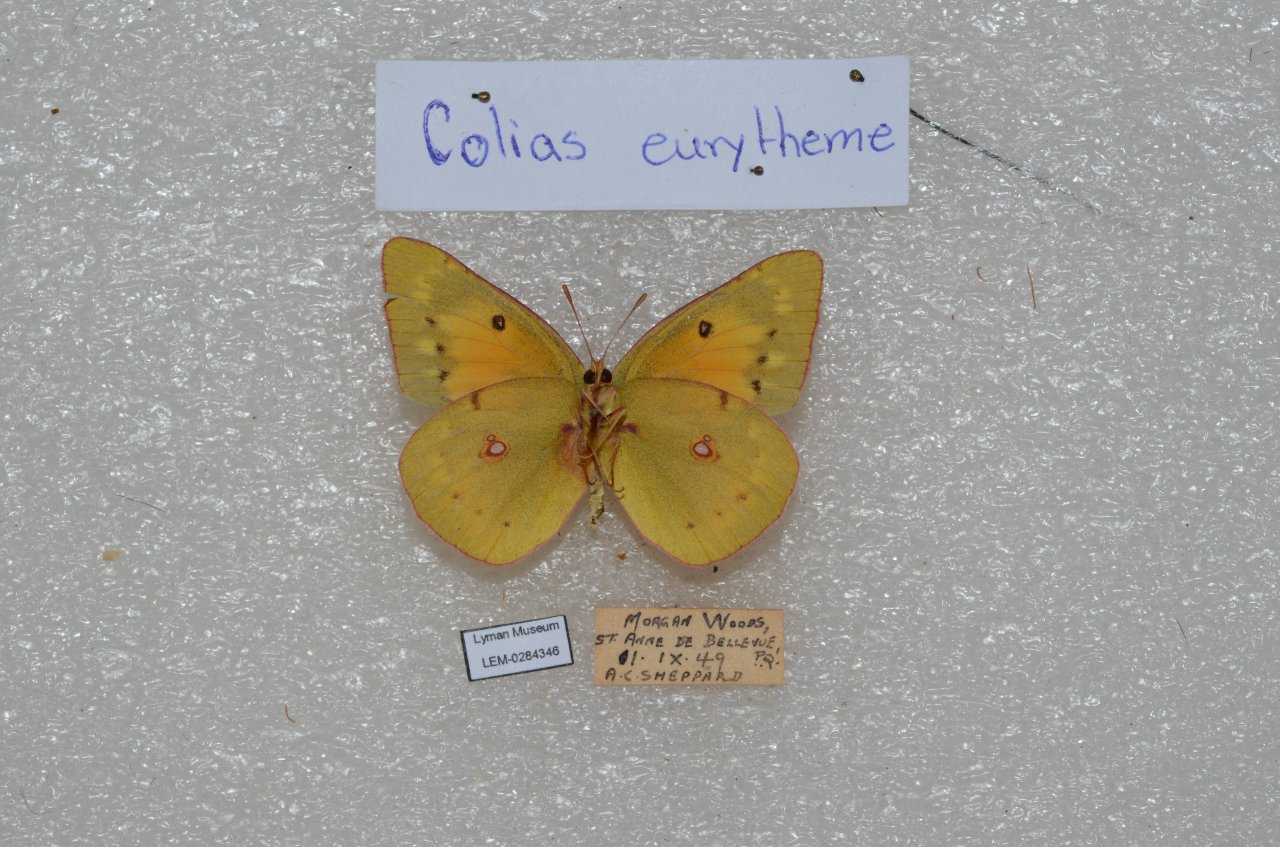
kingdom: Animalia
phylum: Arthropoda
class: Insecta
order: Lepidoptera
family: Pieridae
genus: Colias
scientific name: Colias eurytheme
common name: Orange Sulphur
